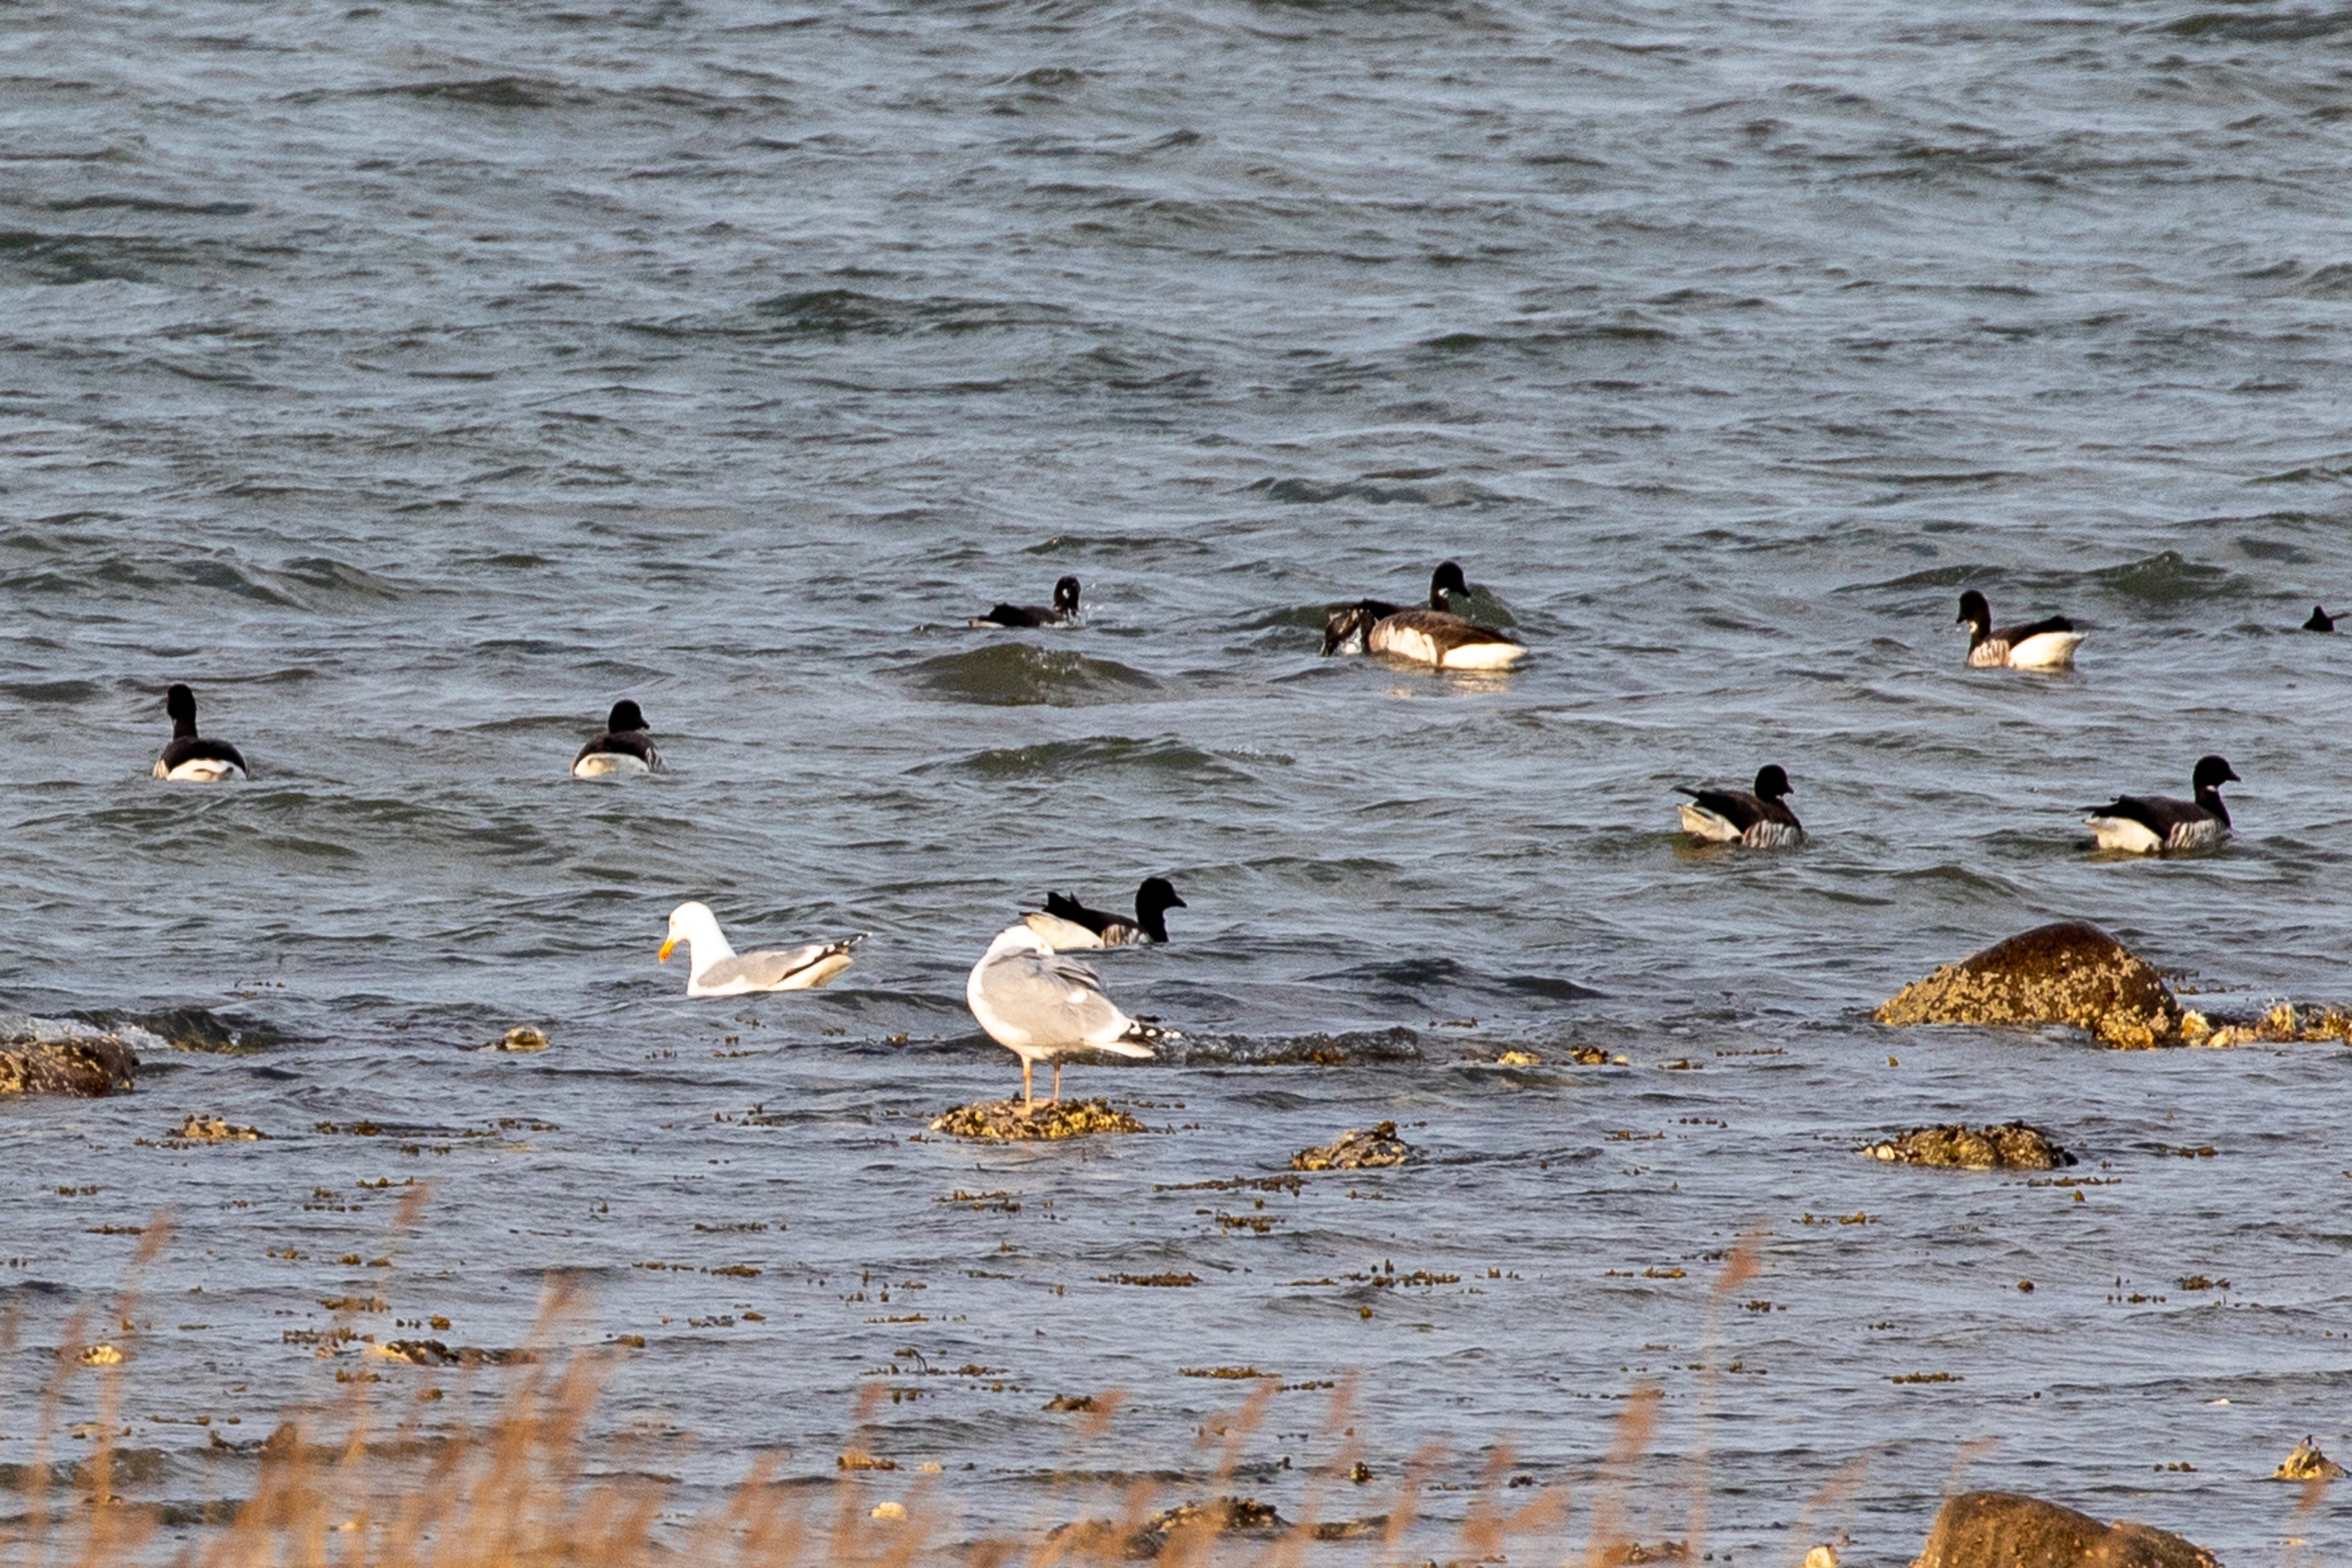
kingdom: Animalia
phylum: Chordata
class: Aves
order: Anseriformes
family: Anatidae
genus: Branta
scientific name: Branta bernicla
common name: Knortegås
